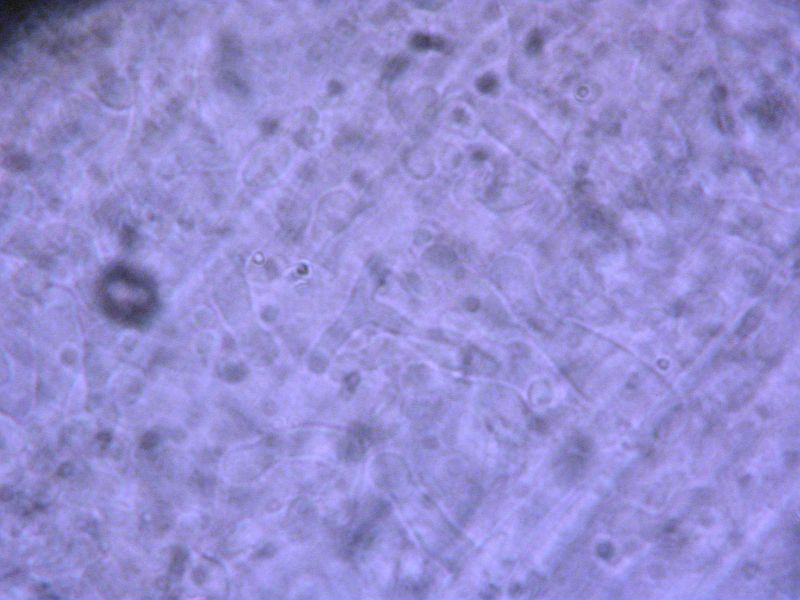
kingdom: Fungi
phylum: Basidiomycota
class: Agaricomycetes
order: Agaricales
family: Mycenaceae
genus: Hemimycena
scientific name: Hemimycena lactea
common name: mælkehvid huesvamp
